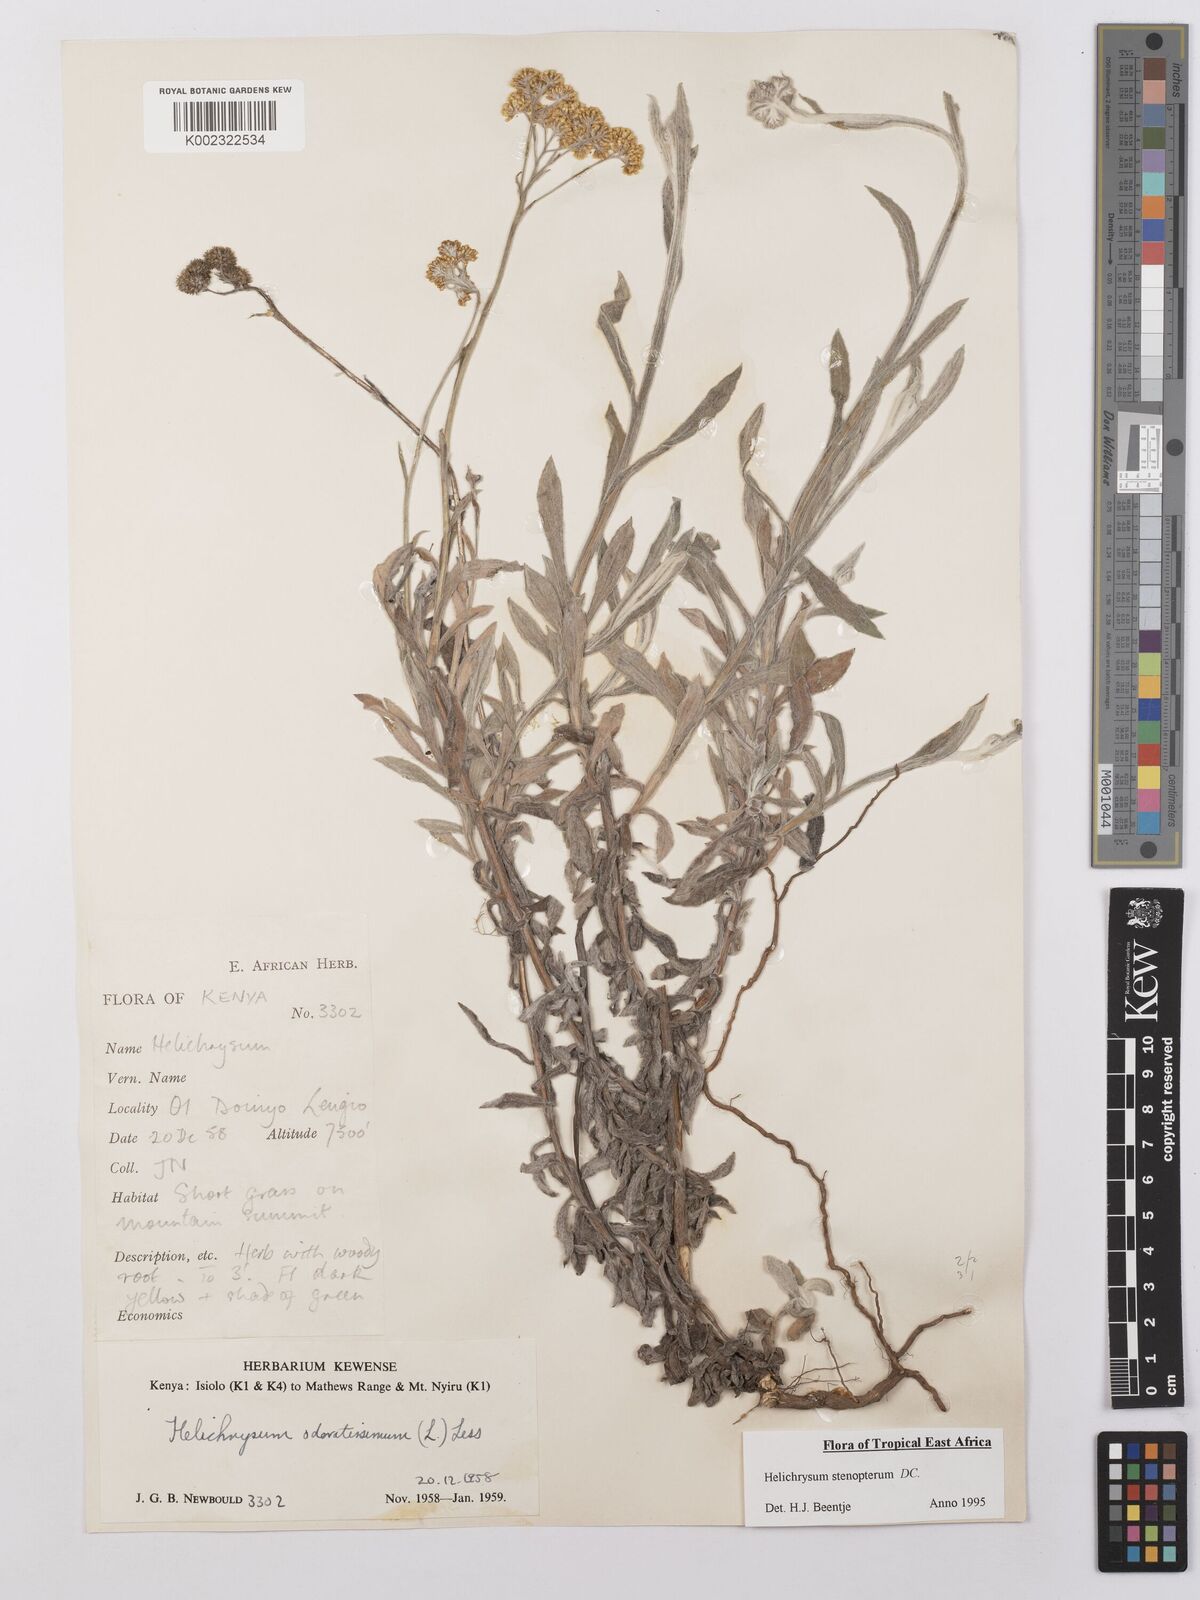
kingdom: Plantae
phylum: Tracheophyta
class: Magnoliopsida
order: Asterales
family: Asteraceae
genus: Helichrysum
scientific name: Helichrysum stenopterum
